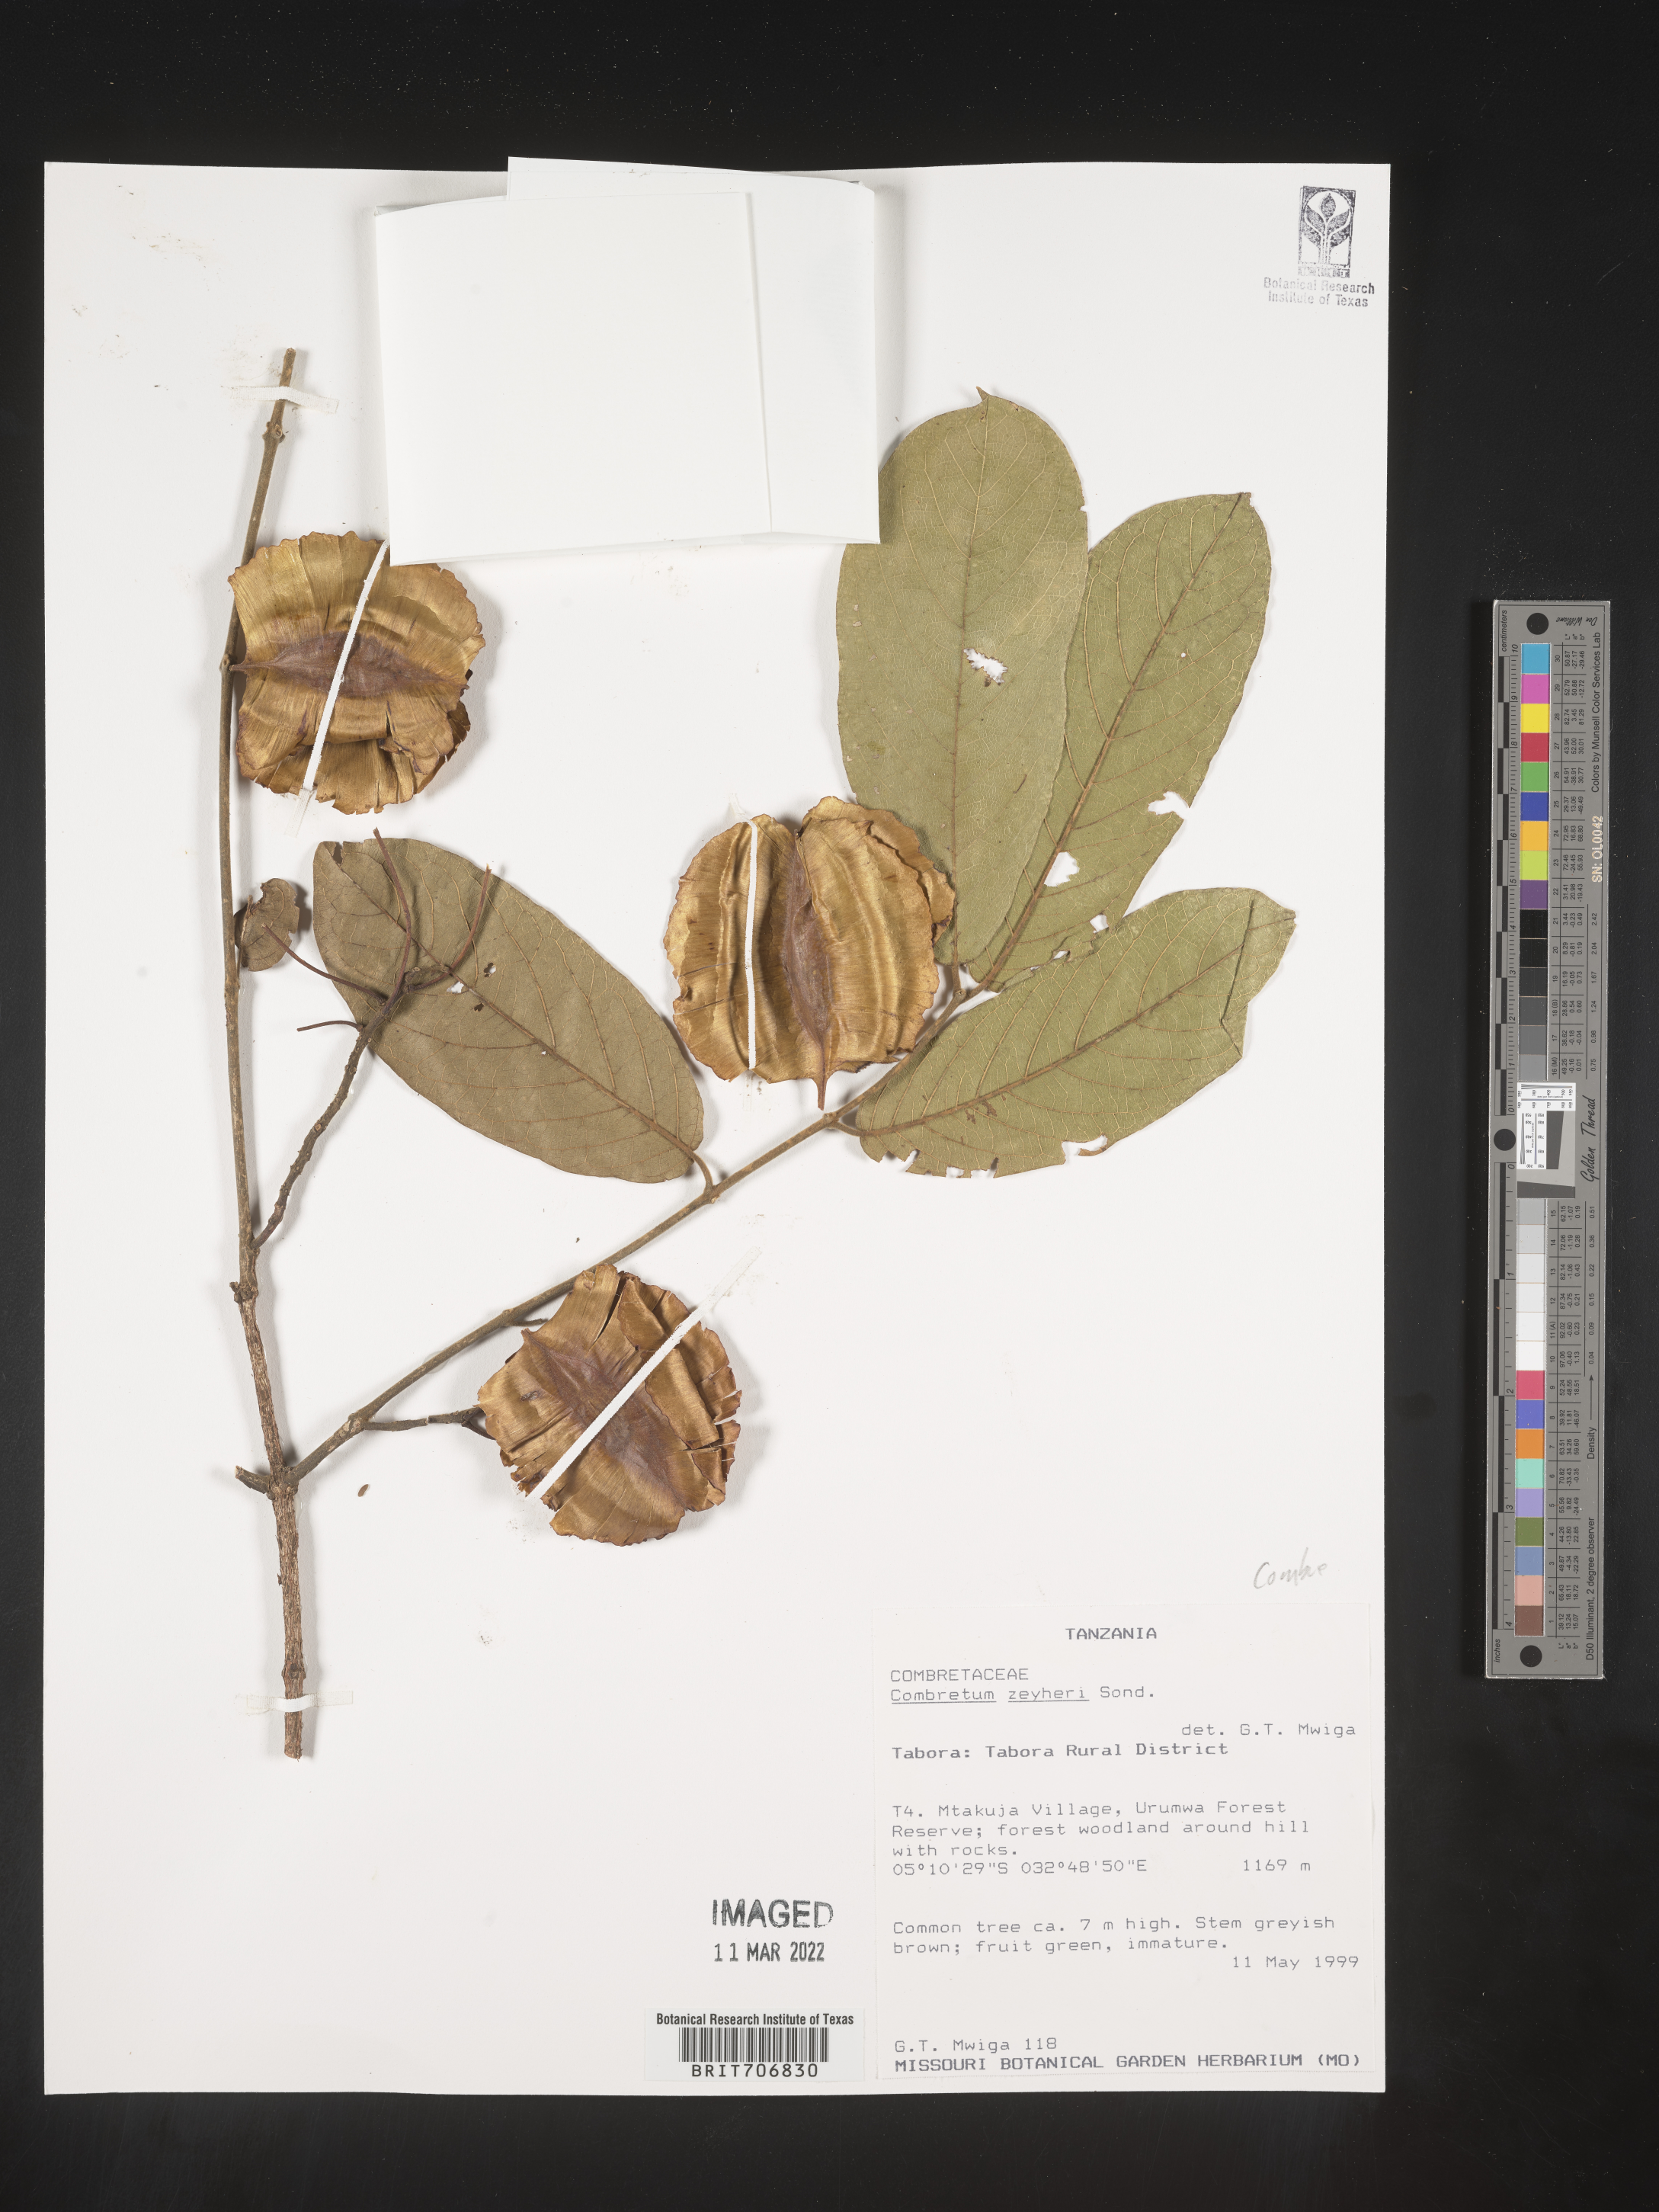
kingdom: Plantae
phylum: Tracheophyta
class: Magnoliopsida
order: Myrtales
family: Combretaceae
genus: Combretum
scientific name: Combretum
